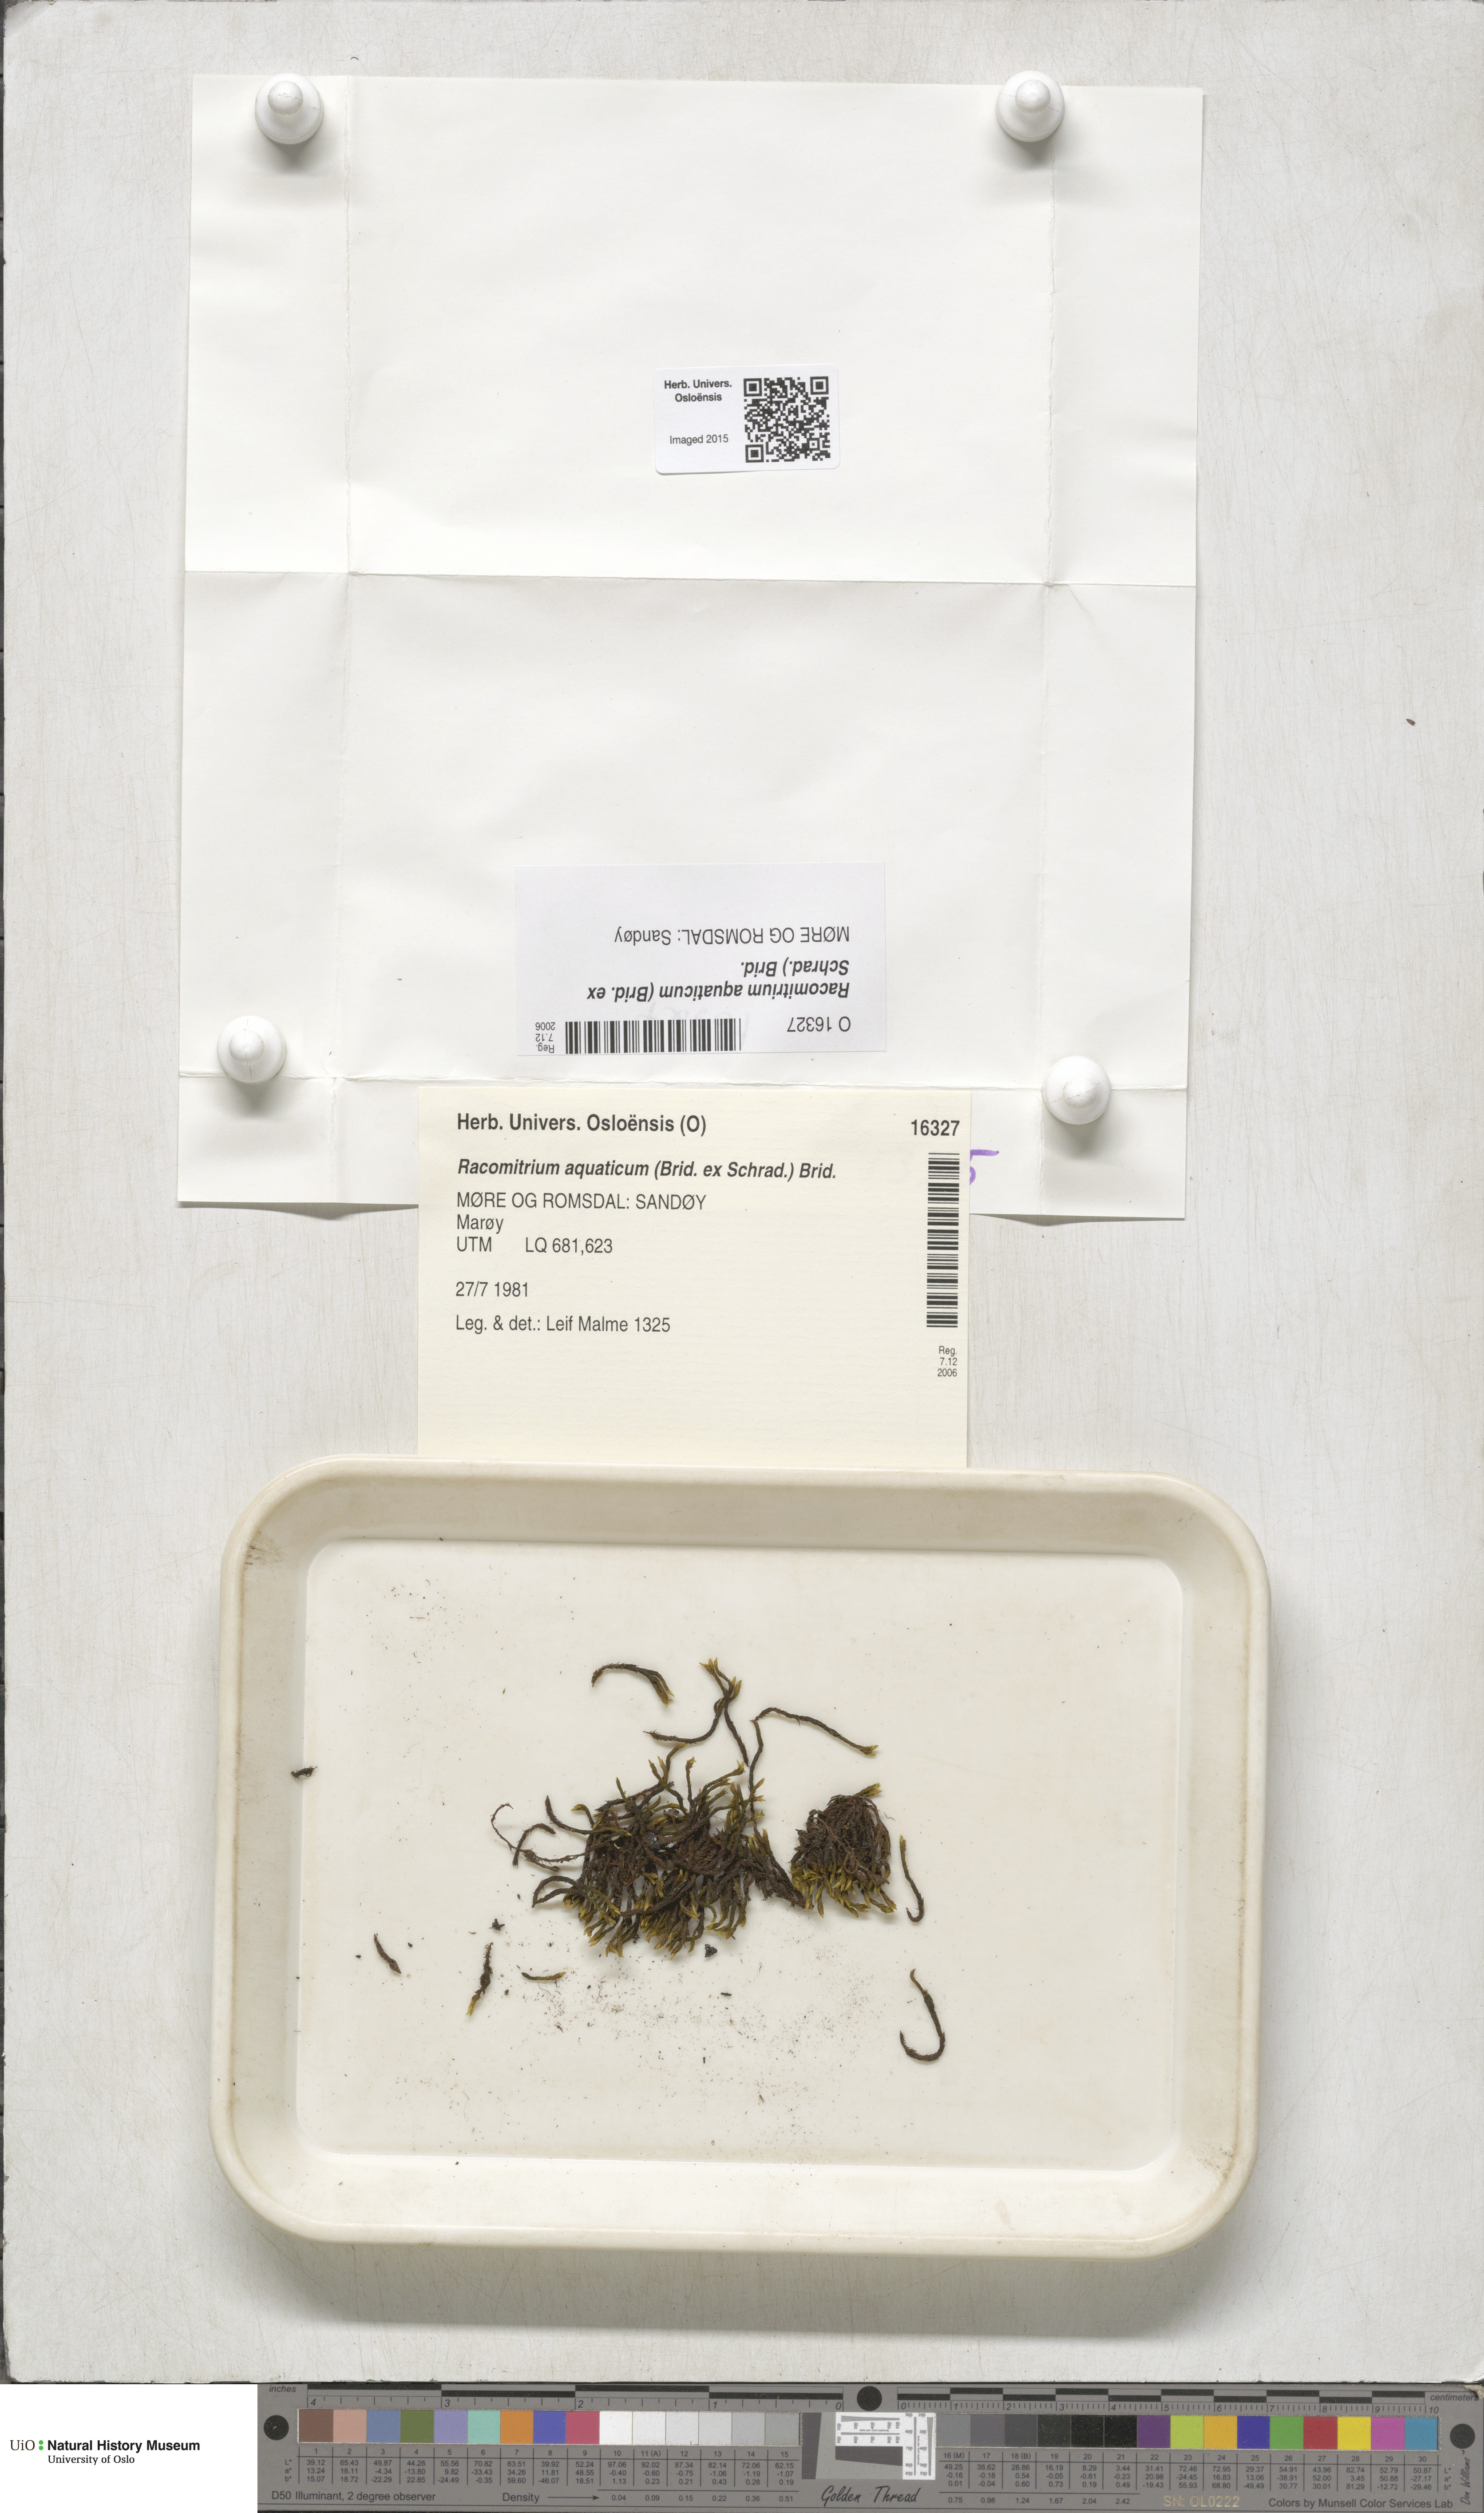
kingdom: Plantae
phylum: Bryophyta
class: Bryopsida
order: Grimmiales
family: Grimmiaceae
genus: Codriophorus
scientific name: Codriophorus aquaticus
